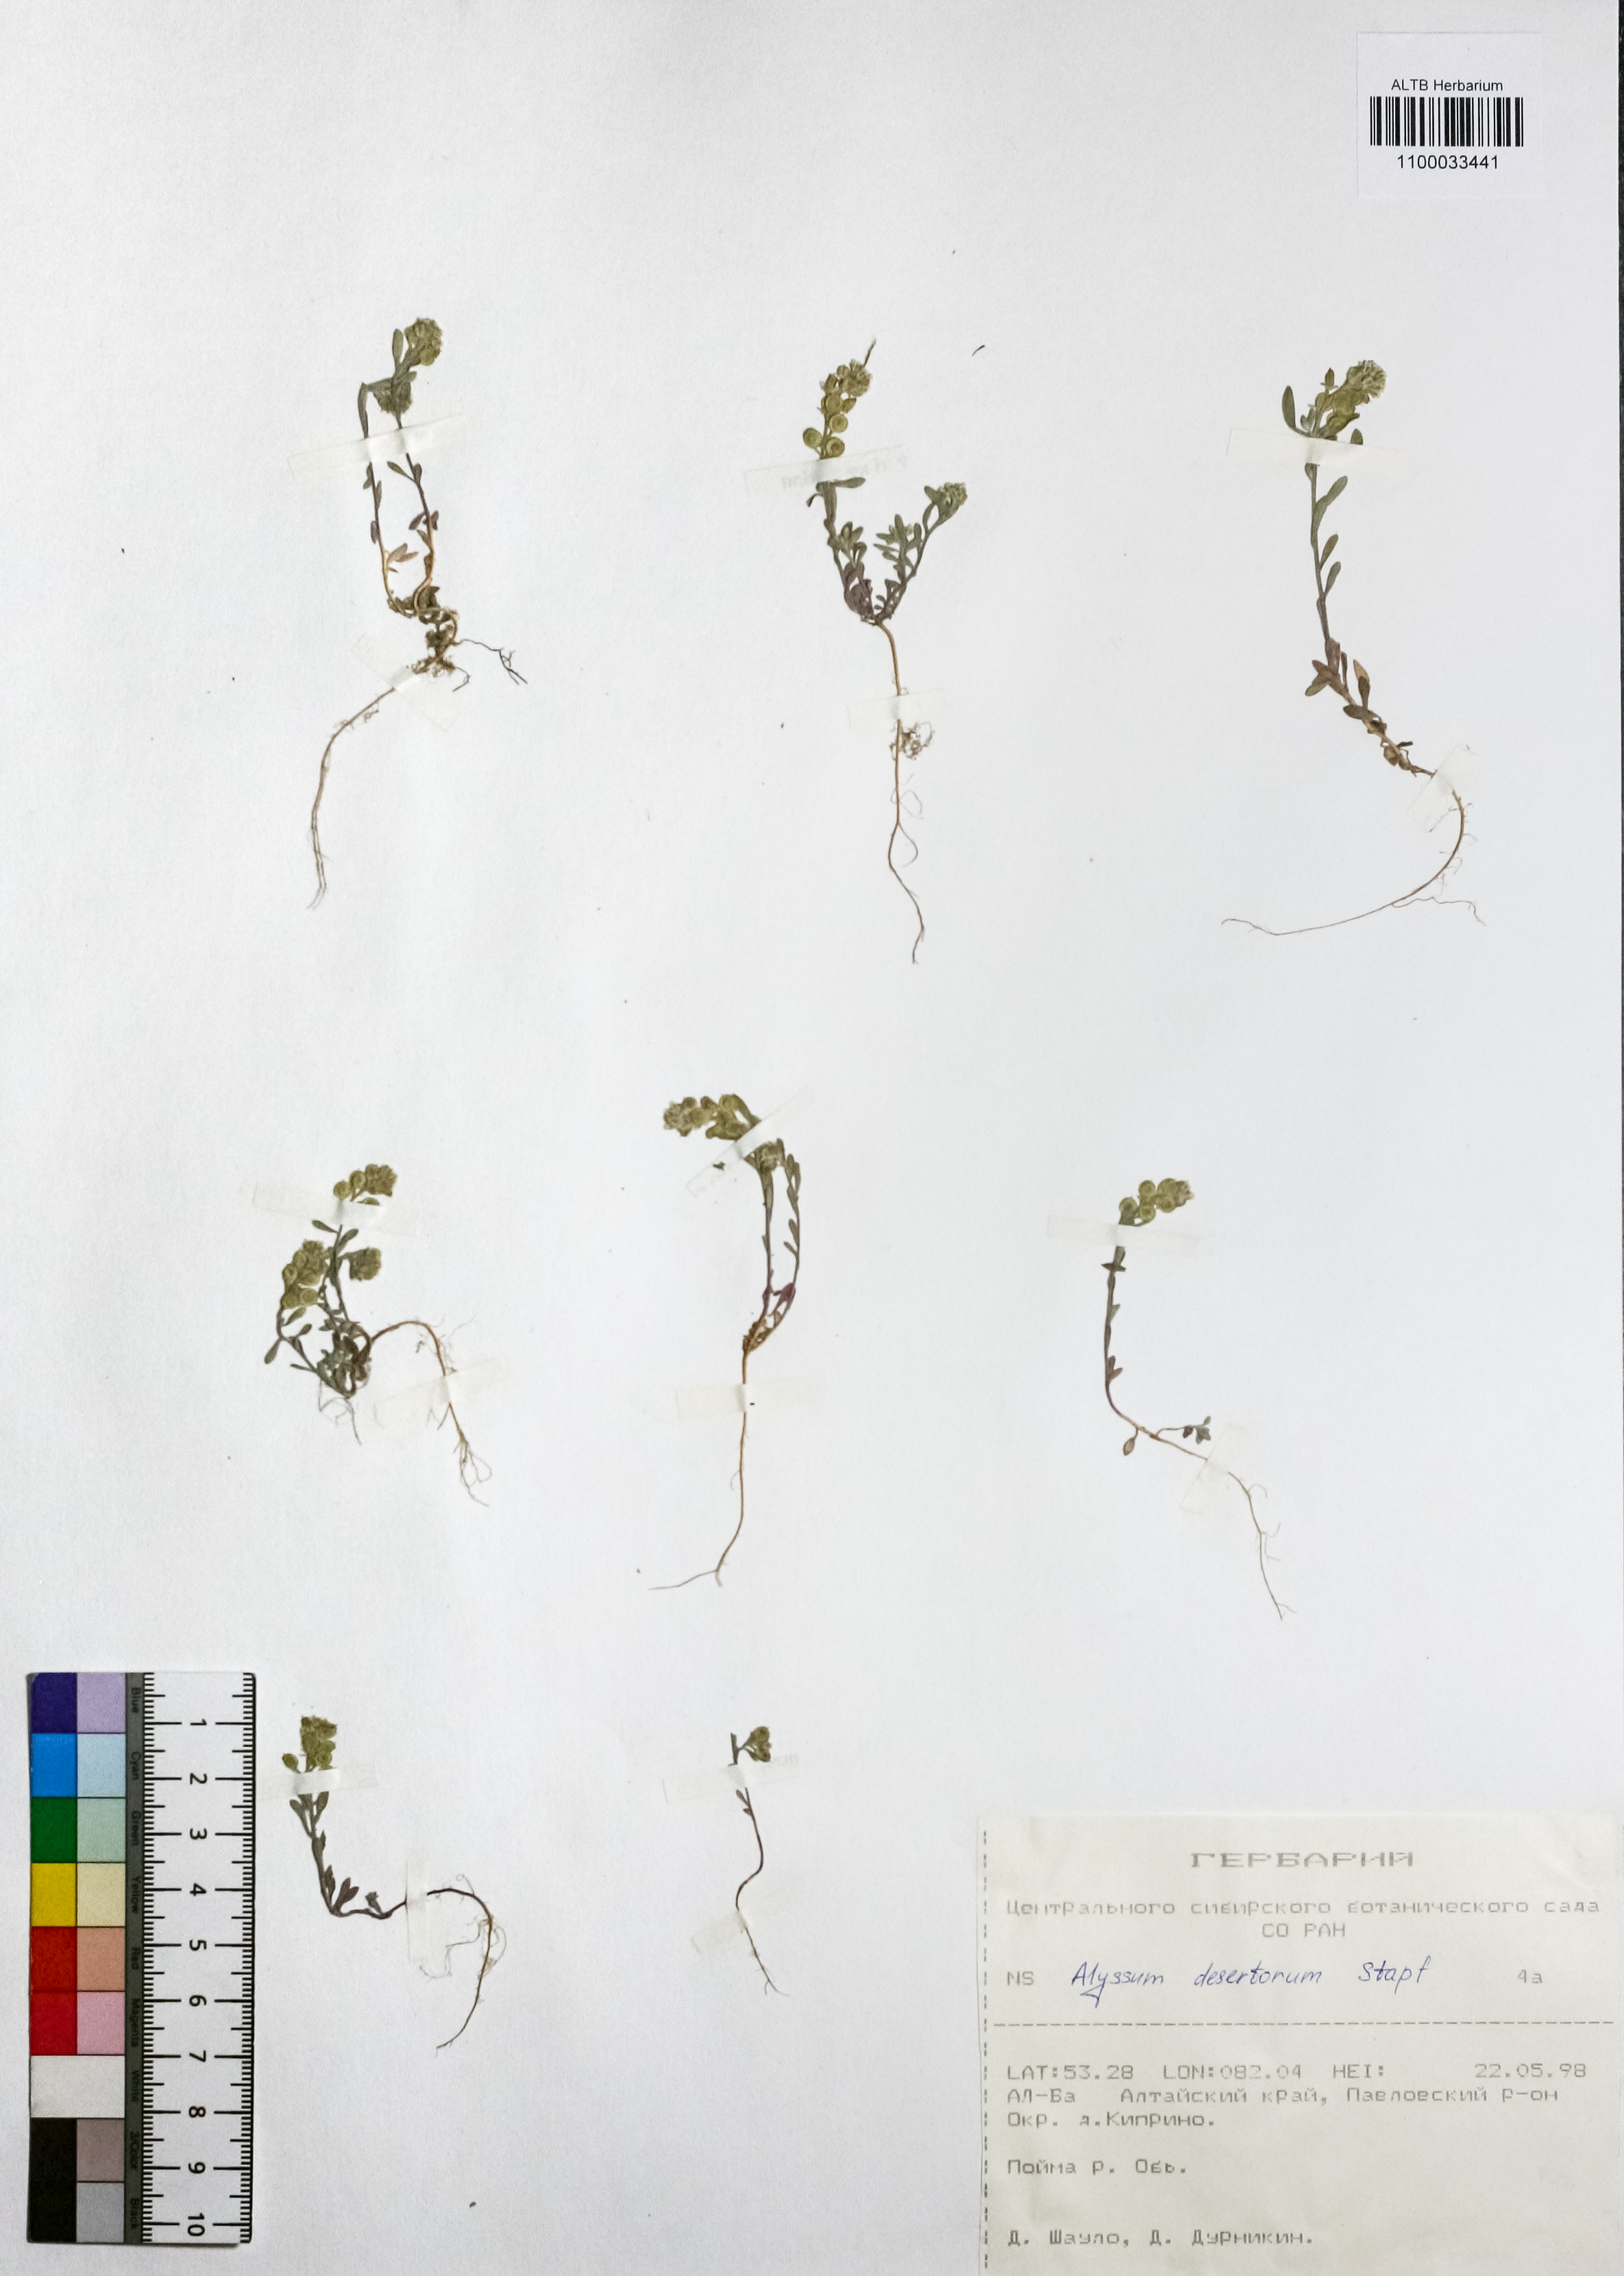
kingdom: Plantae
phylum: Tracheophyta
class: Magnoliopsida
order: Brassicales
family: Brassicaceae
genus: Alyssum
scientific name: Alyssum turkestanicum
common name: Desert alyssum
